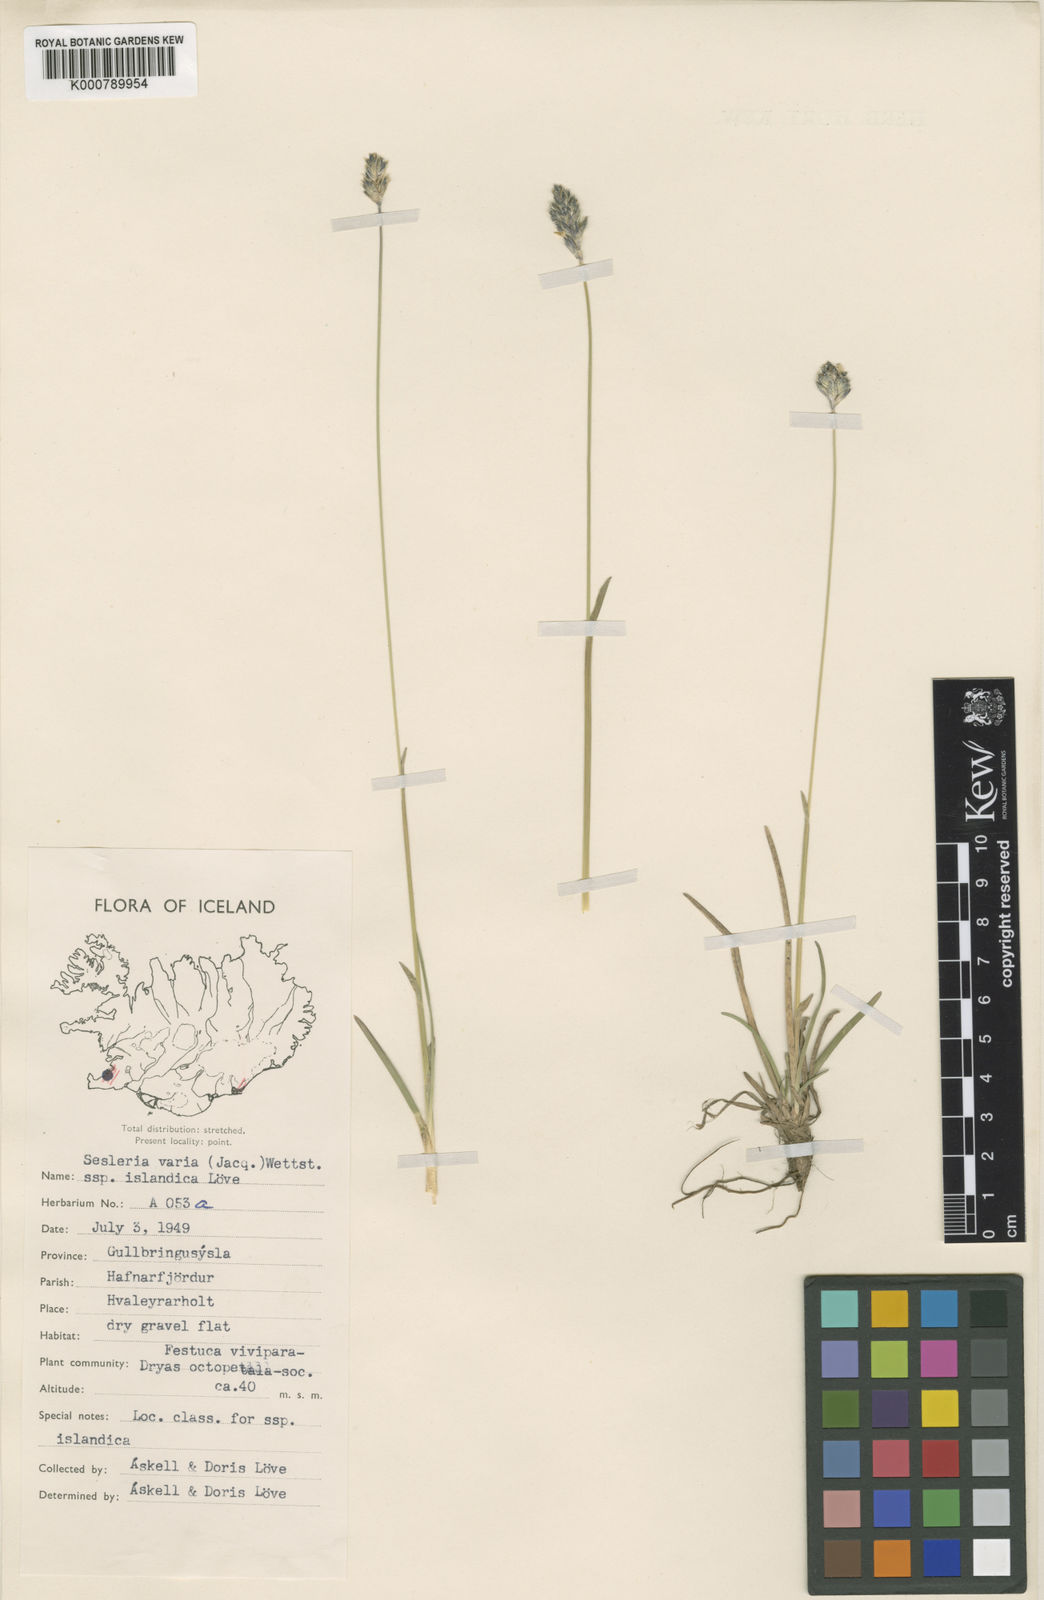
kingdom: Plantae
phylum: Tracheophyta
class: Liliopsida
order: Poales
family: Poaceae
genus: Sesleria
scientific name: Sesleria albicans
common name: Blue moor-grass
